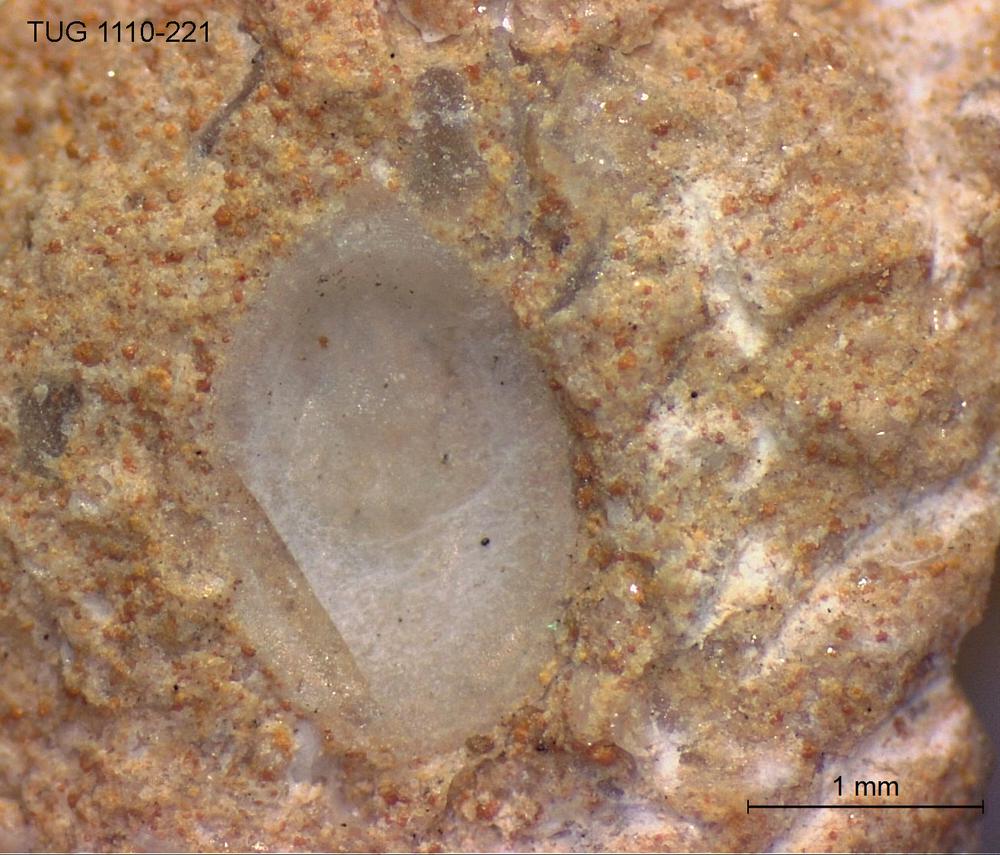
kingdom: Animalia
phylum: Brachiopoda
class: Craniata
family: Craniopsidae
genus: Craniops
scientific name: Craniops
